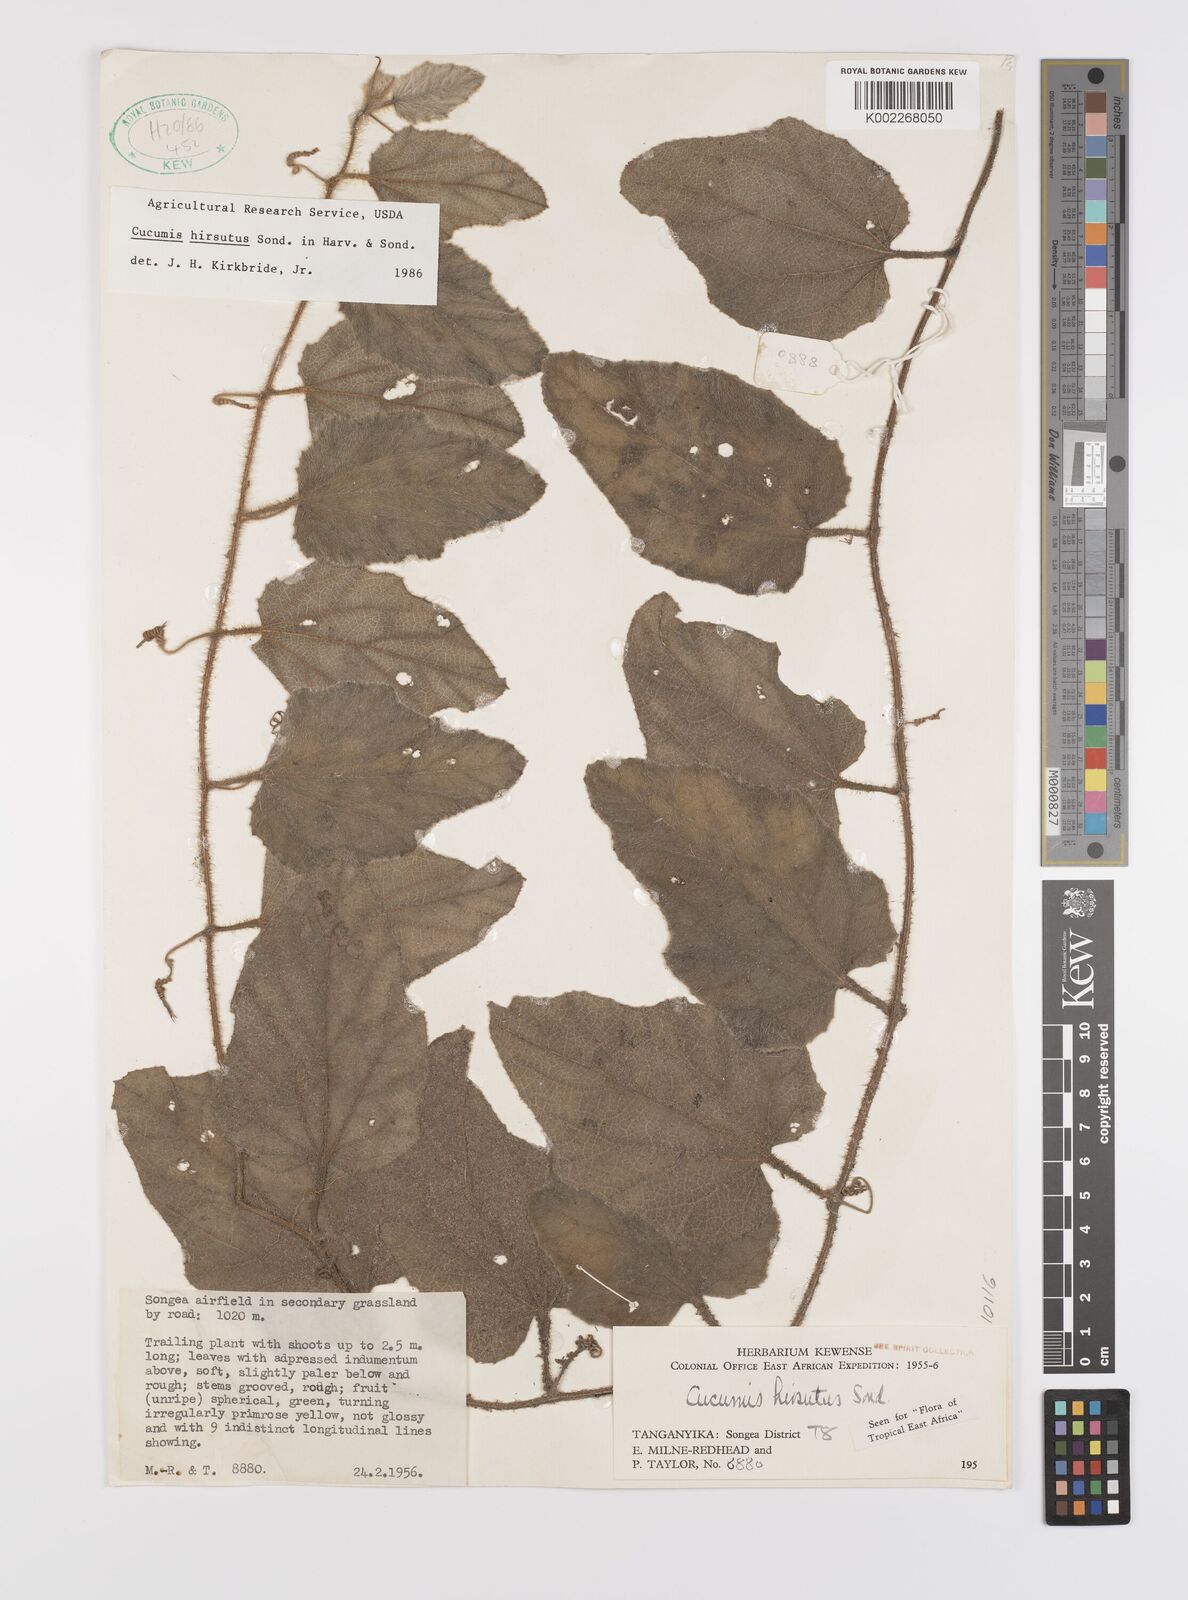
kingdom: Plantae
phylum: Tracheophyta
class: Magnoliopsida
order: Cucurbitales
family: Cucurbitaceae
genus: Cucumis
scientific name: Cucumis hirsutus
